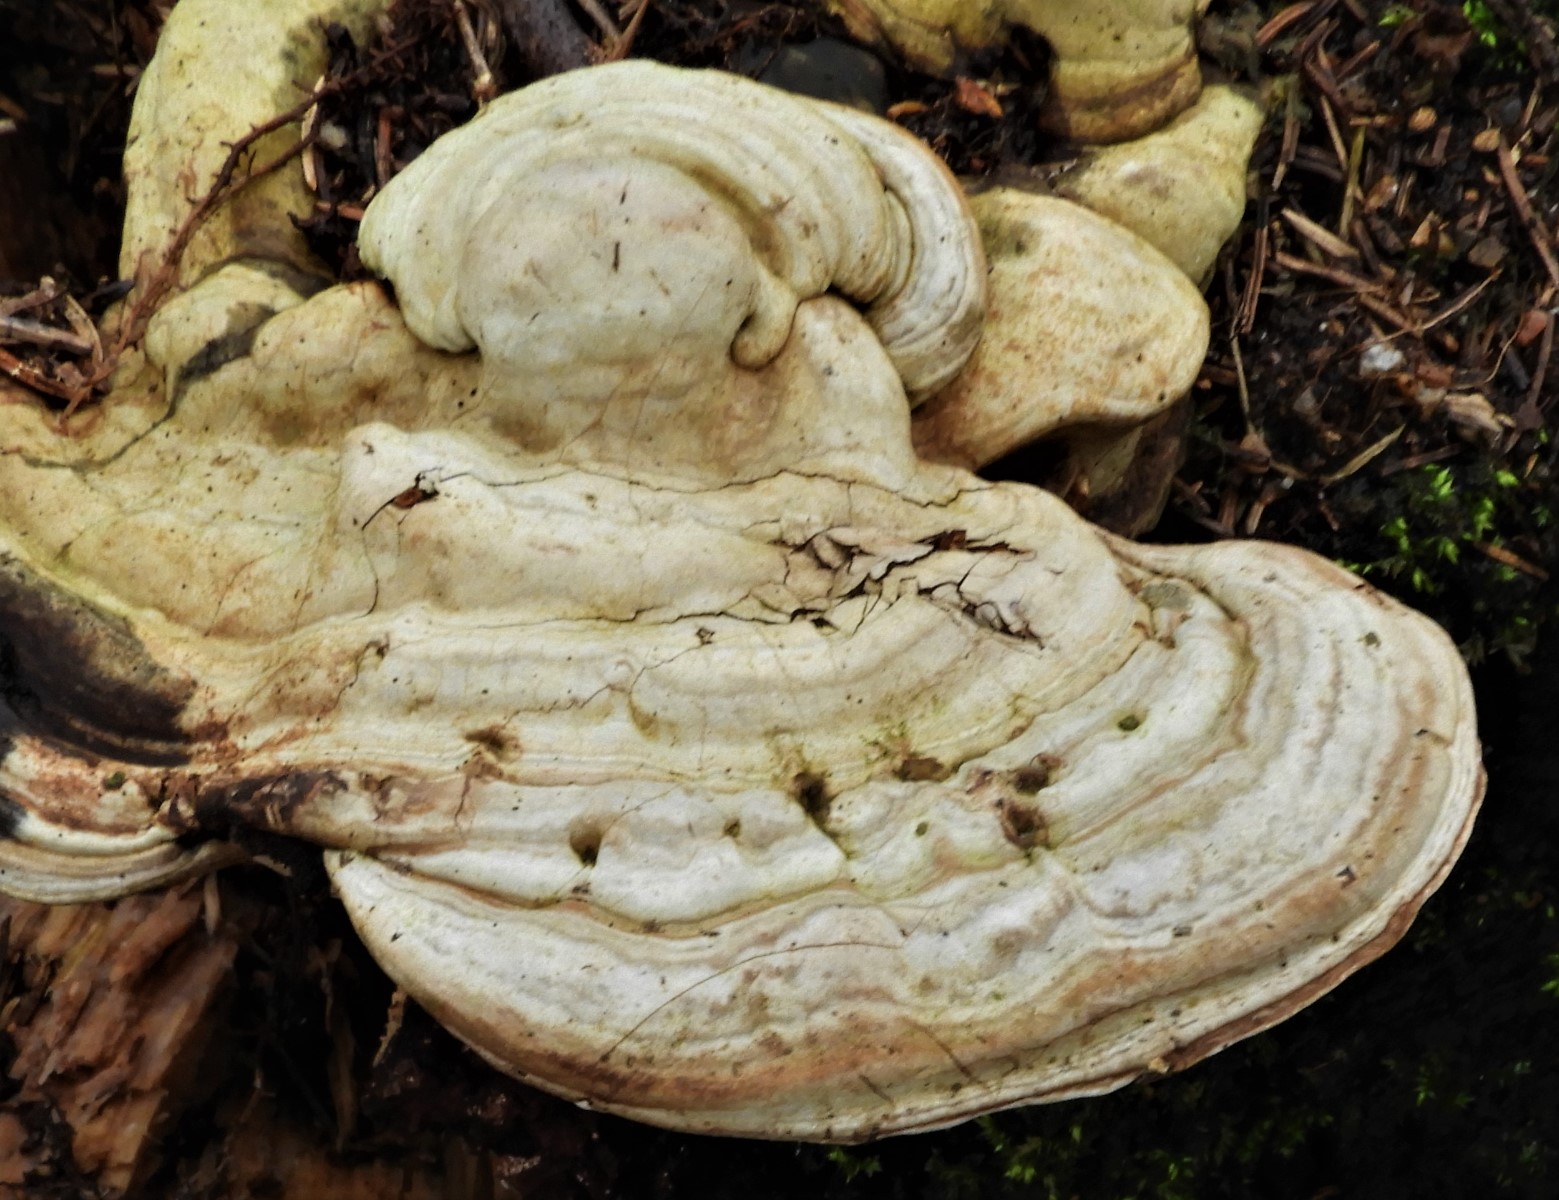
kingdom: Fungi
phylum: Basidiomycota
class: Agaricomycetes
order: Polyporales
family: Polyporaceae
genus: Ganoderma
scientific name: Ganoderma applanatum
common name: flad lakporesvamp
